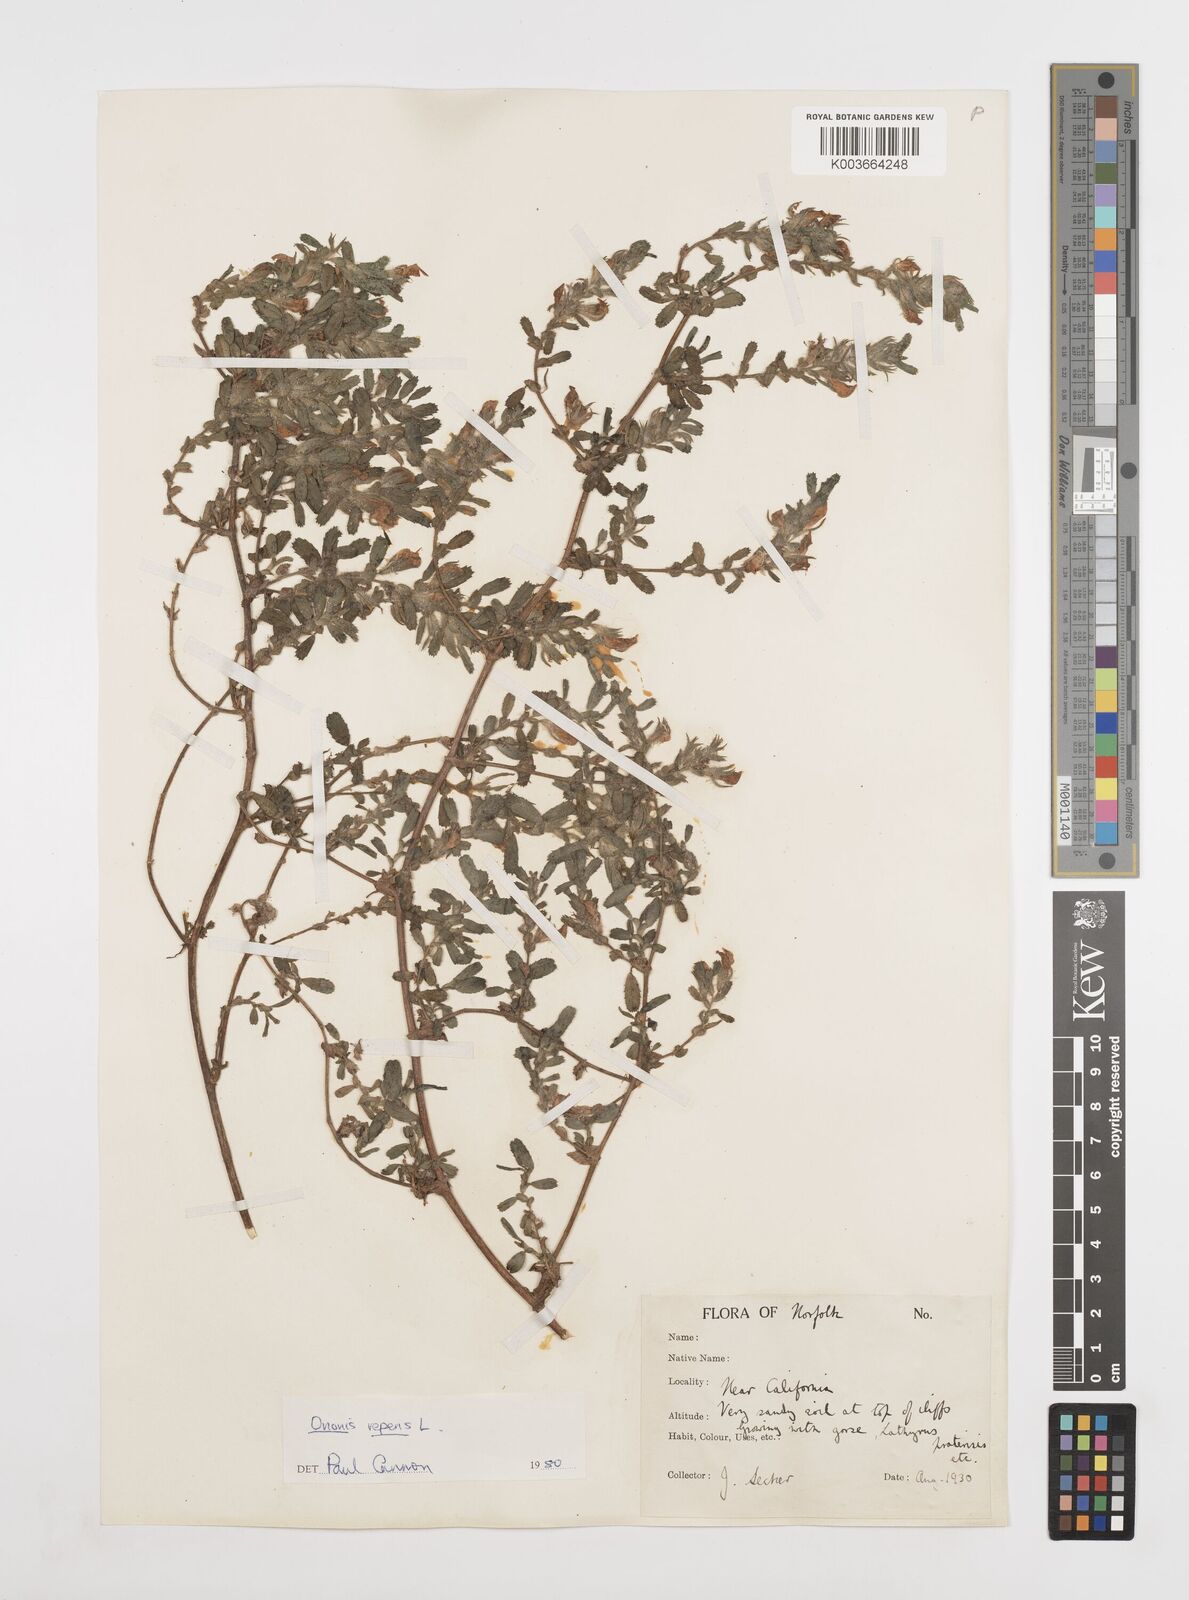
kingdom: Plantae
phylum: Tracheophyta
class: Magnoliopsida
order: Fabales
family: Fabaceae
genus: Ononis
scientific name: Ononis spinosa
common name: Spiny restharrow
